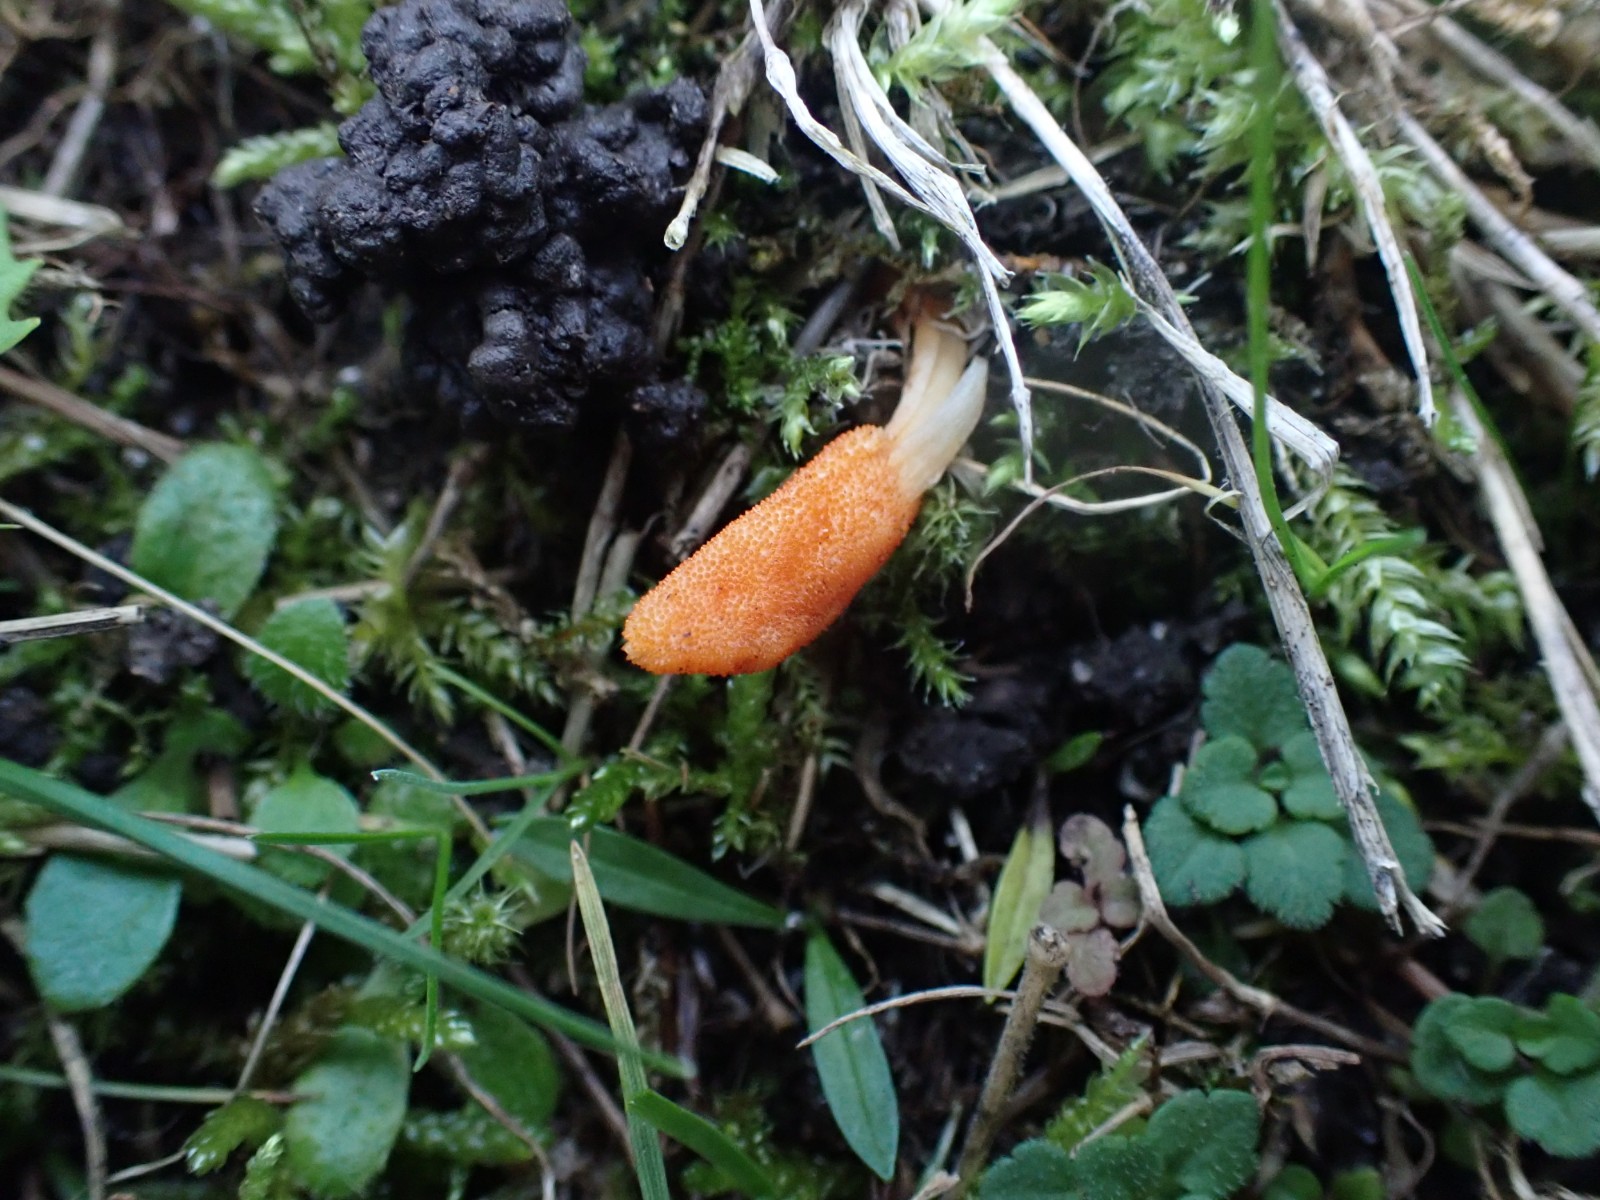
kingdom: Fungi
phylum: Ascomycota
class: Sordariomycetes
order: Hypocreales
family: Cordycipitaceae
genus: Cordyceps
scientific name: Cordyceps militaris
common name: puppe-snyltekølle
